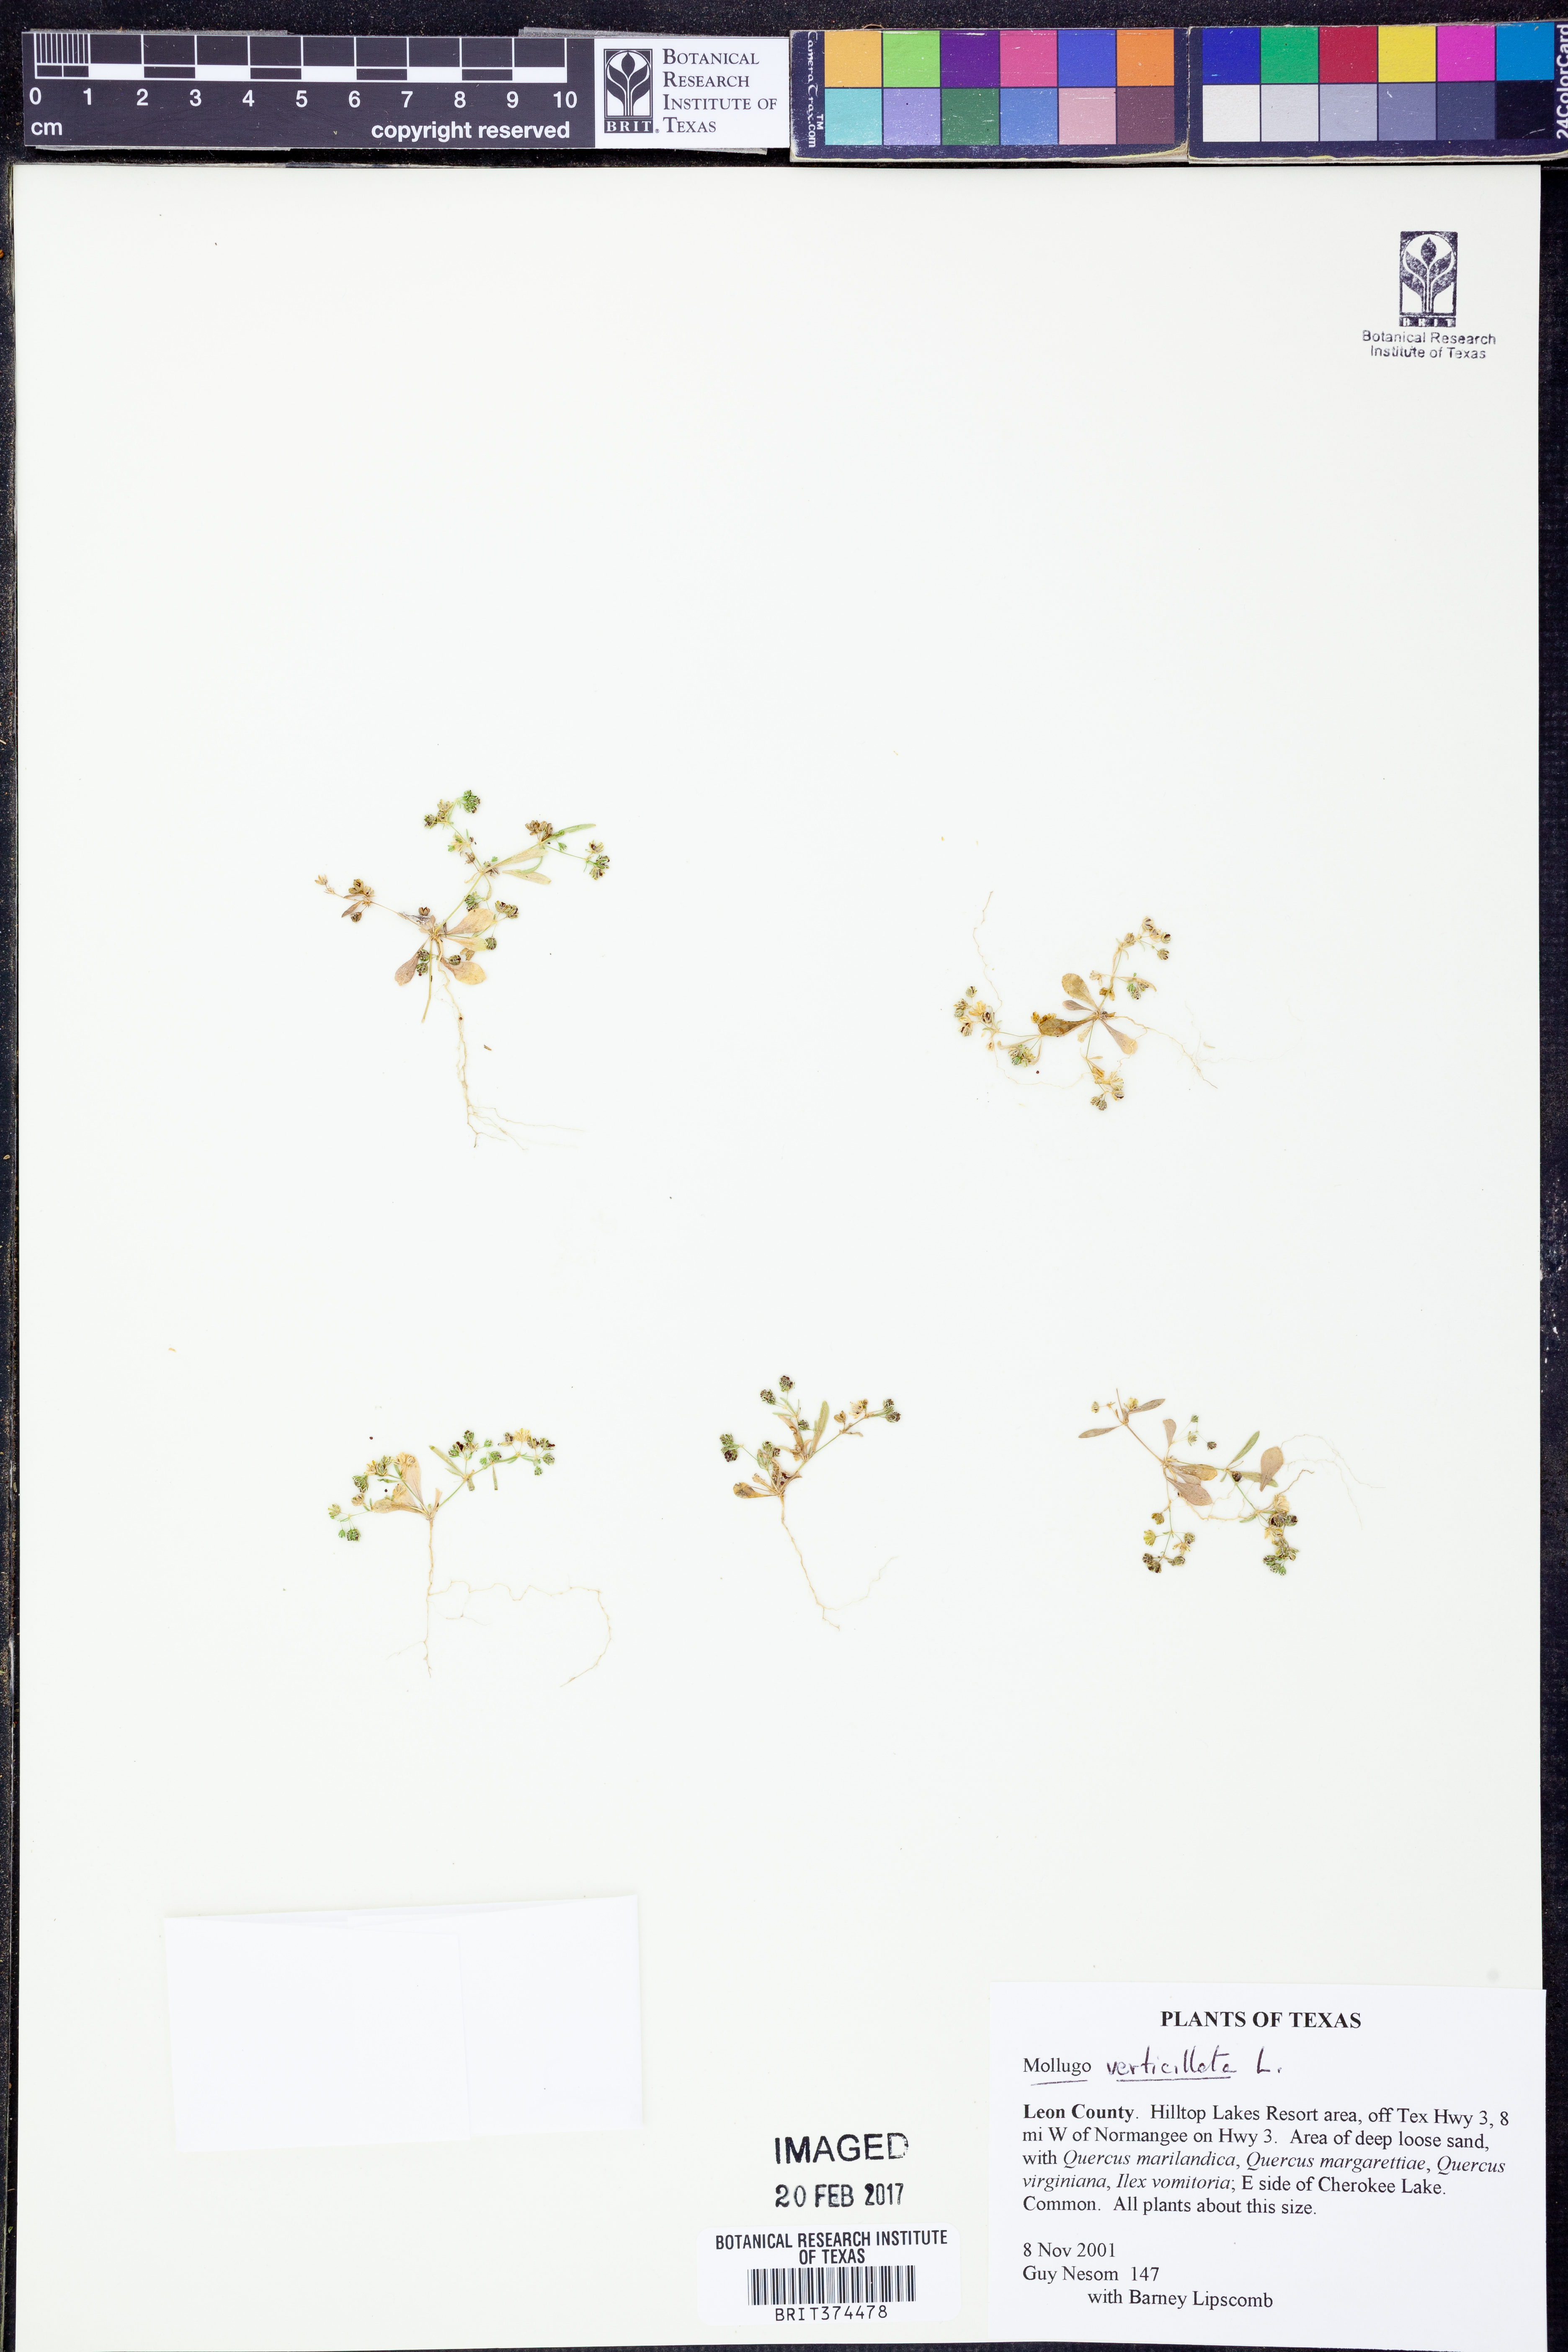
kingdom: Plantae
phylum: Tracheophyta
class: Magnoliopsida
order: Caryophyllales
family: Molluginaceae
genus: Mollugo
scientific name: Mollugo verticillata
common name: Green carpetweed
